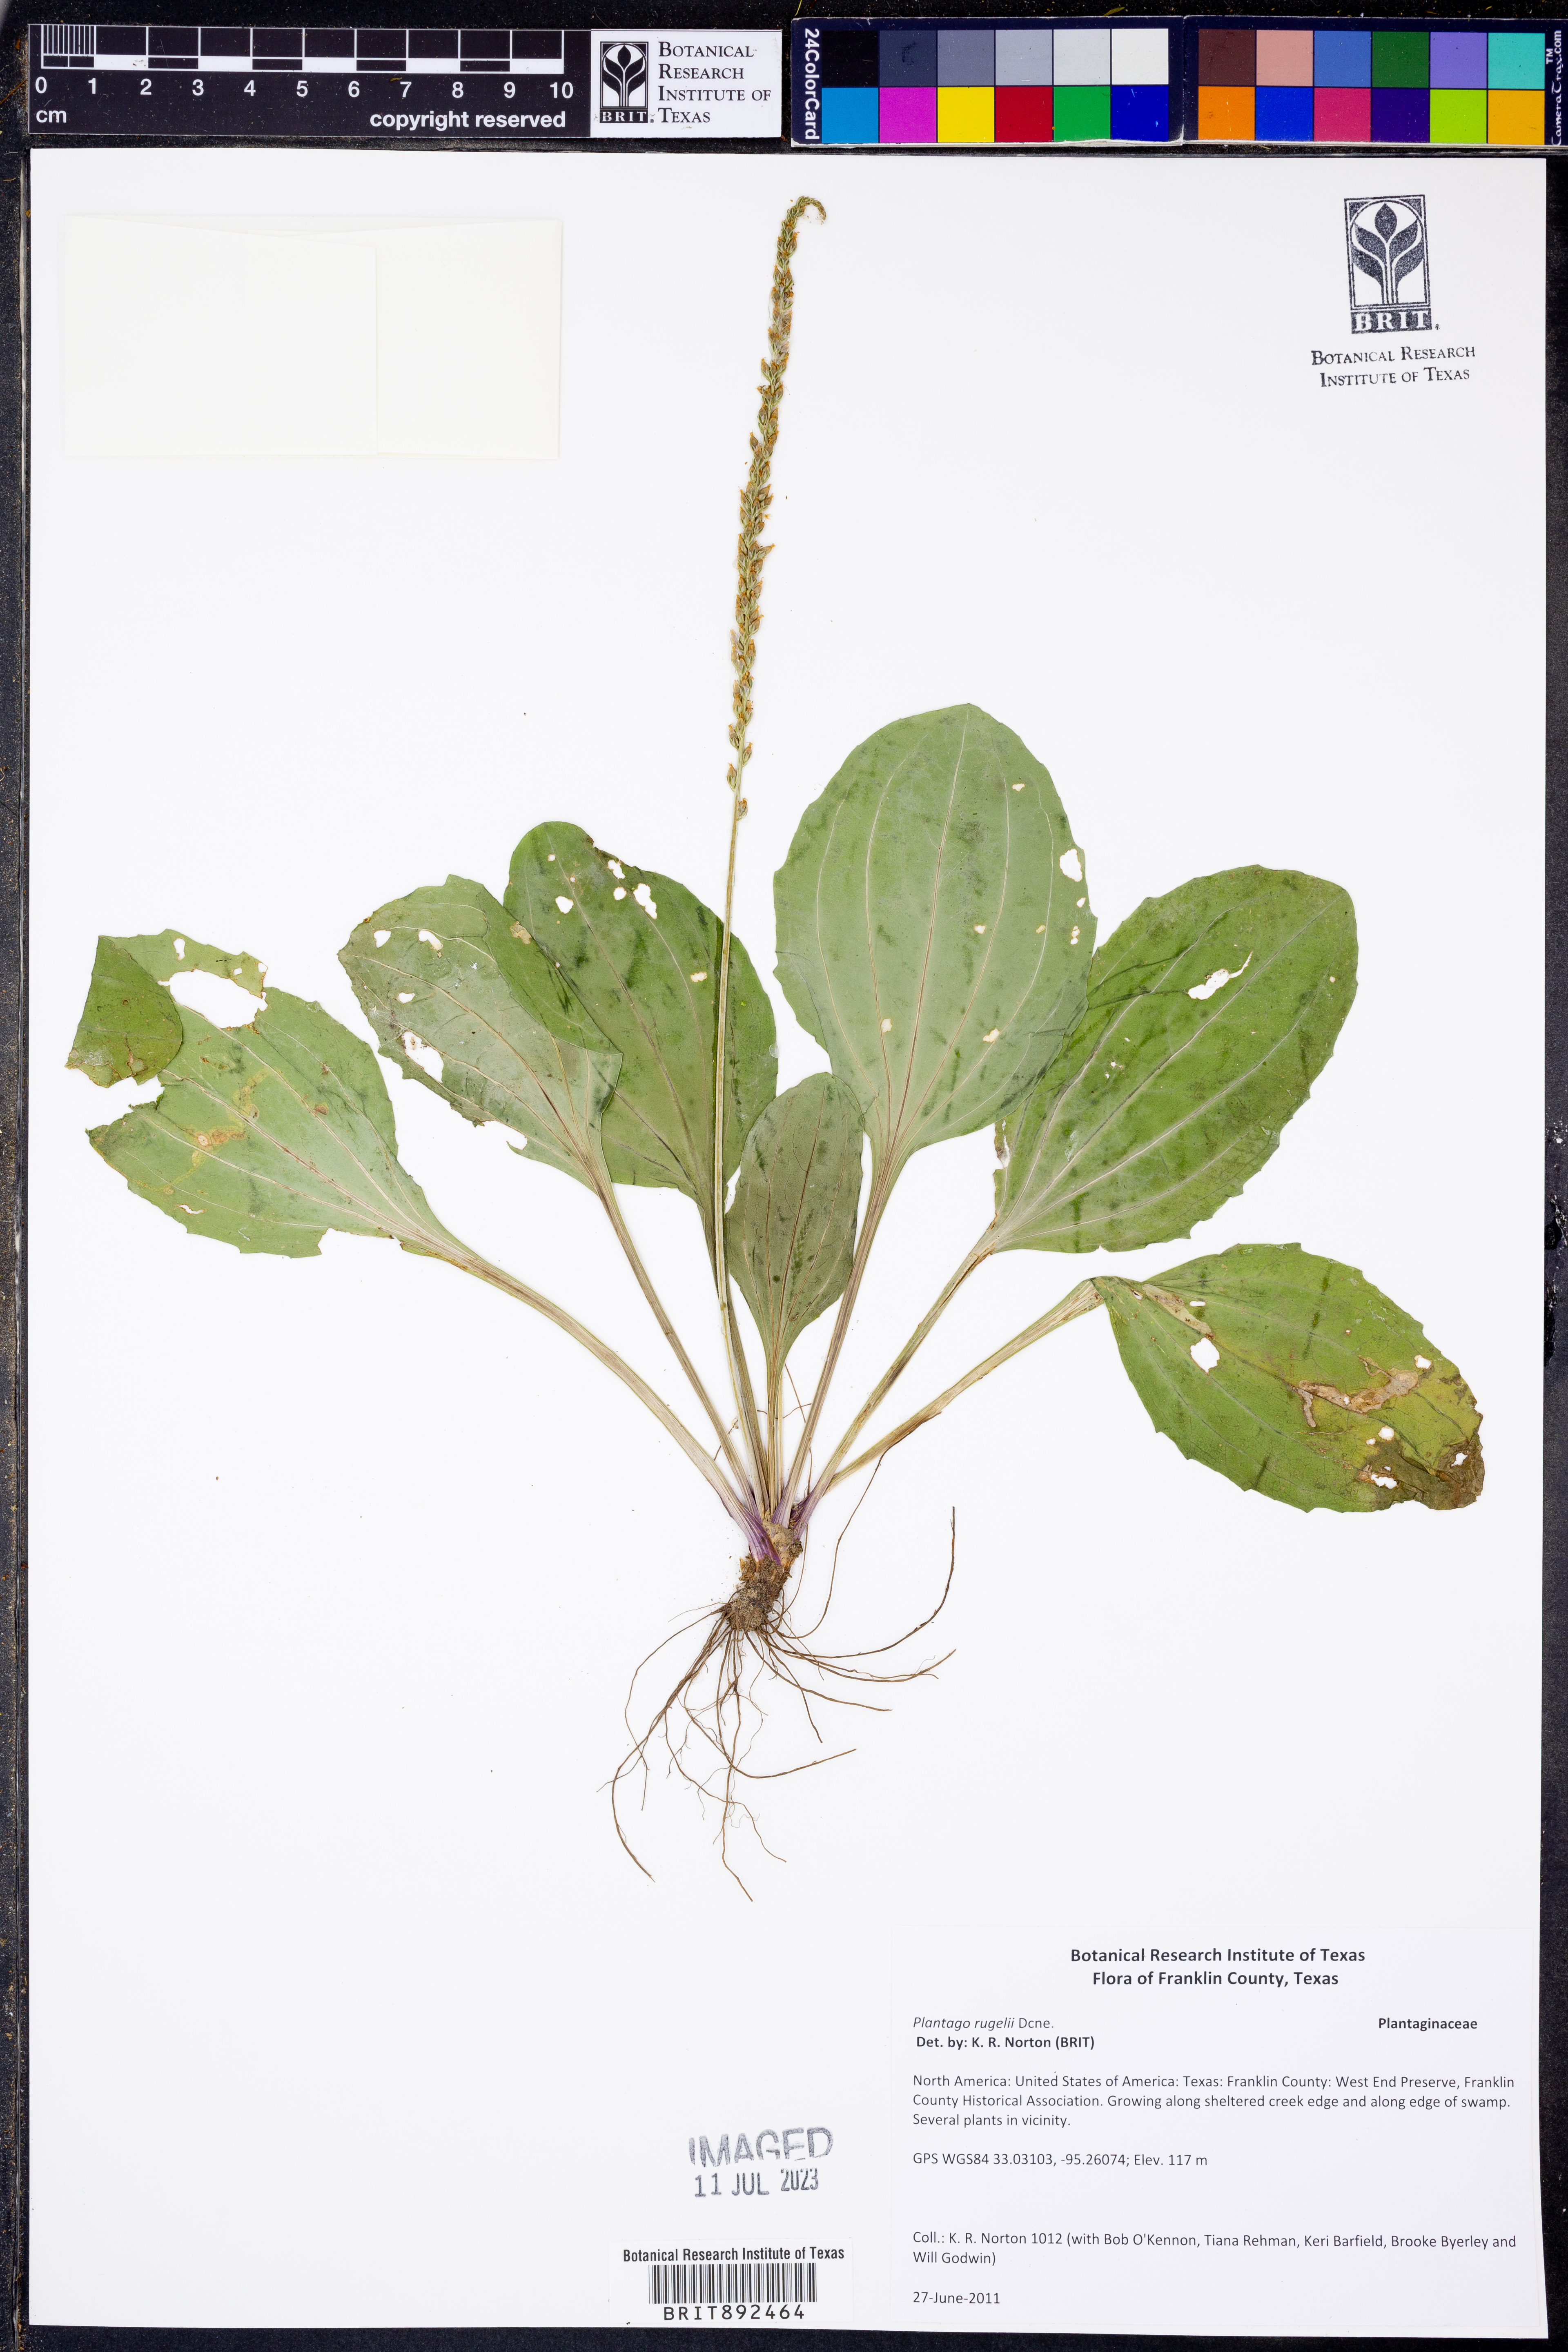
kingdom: Plantae
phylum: Tracheophyta
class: Magnoliopsida
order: Lamiales
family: Plantaginaceae
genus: Plantago
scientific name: Plantago rugelii
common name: American plantain
